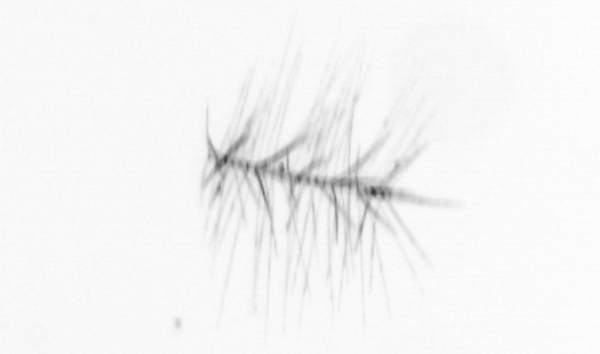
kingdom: Chromista
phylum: Ochrophyta
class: Bacillariophyceae
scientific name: Bacillariophyceae
